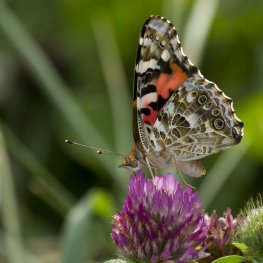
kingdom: Animalia
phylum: Arthropoda
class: Insecta
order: Lepidoptera
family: Nymphalidae
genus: Vanessa
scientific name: Vanessa cardui
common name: Painted Lady
